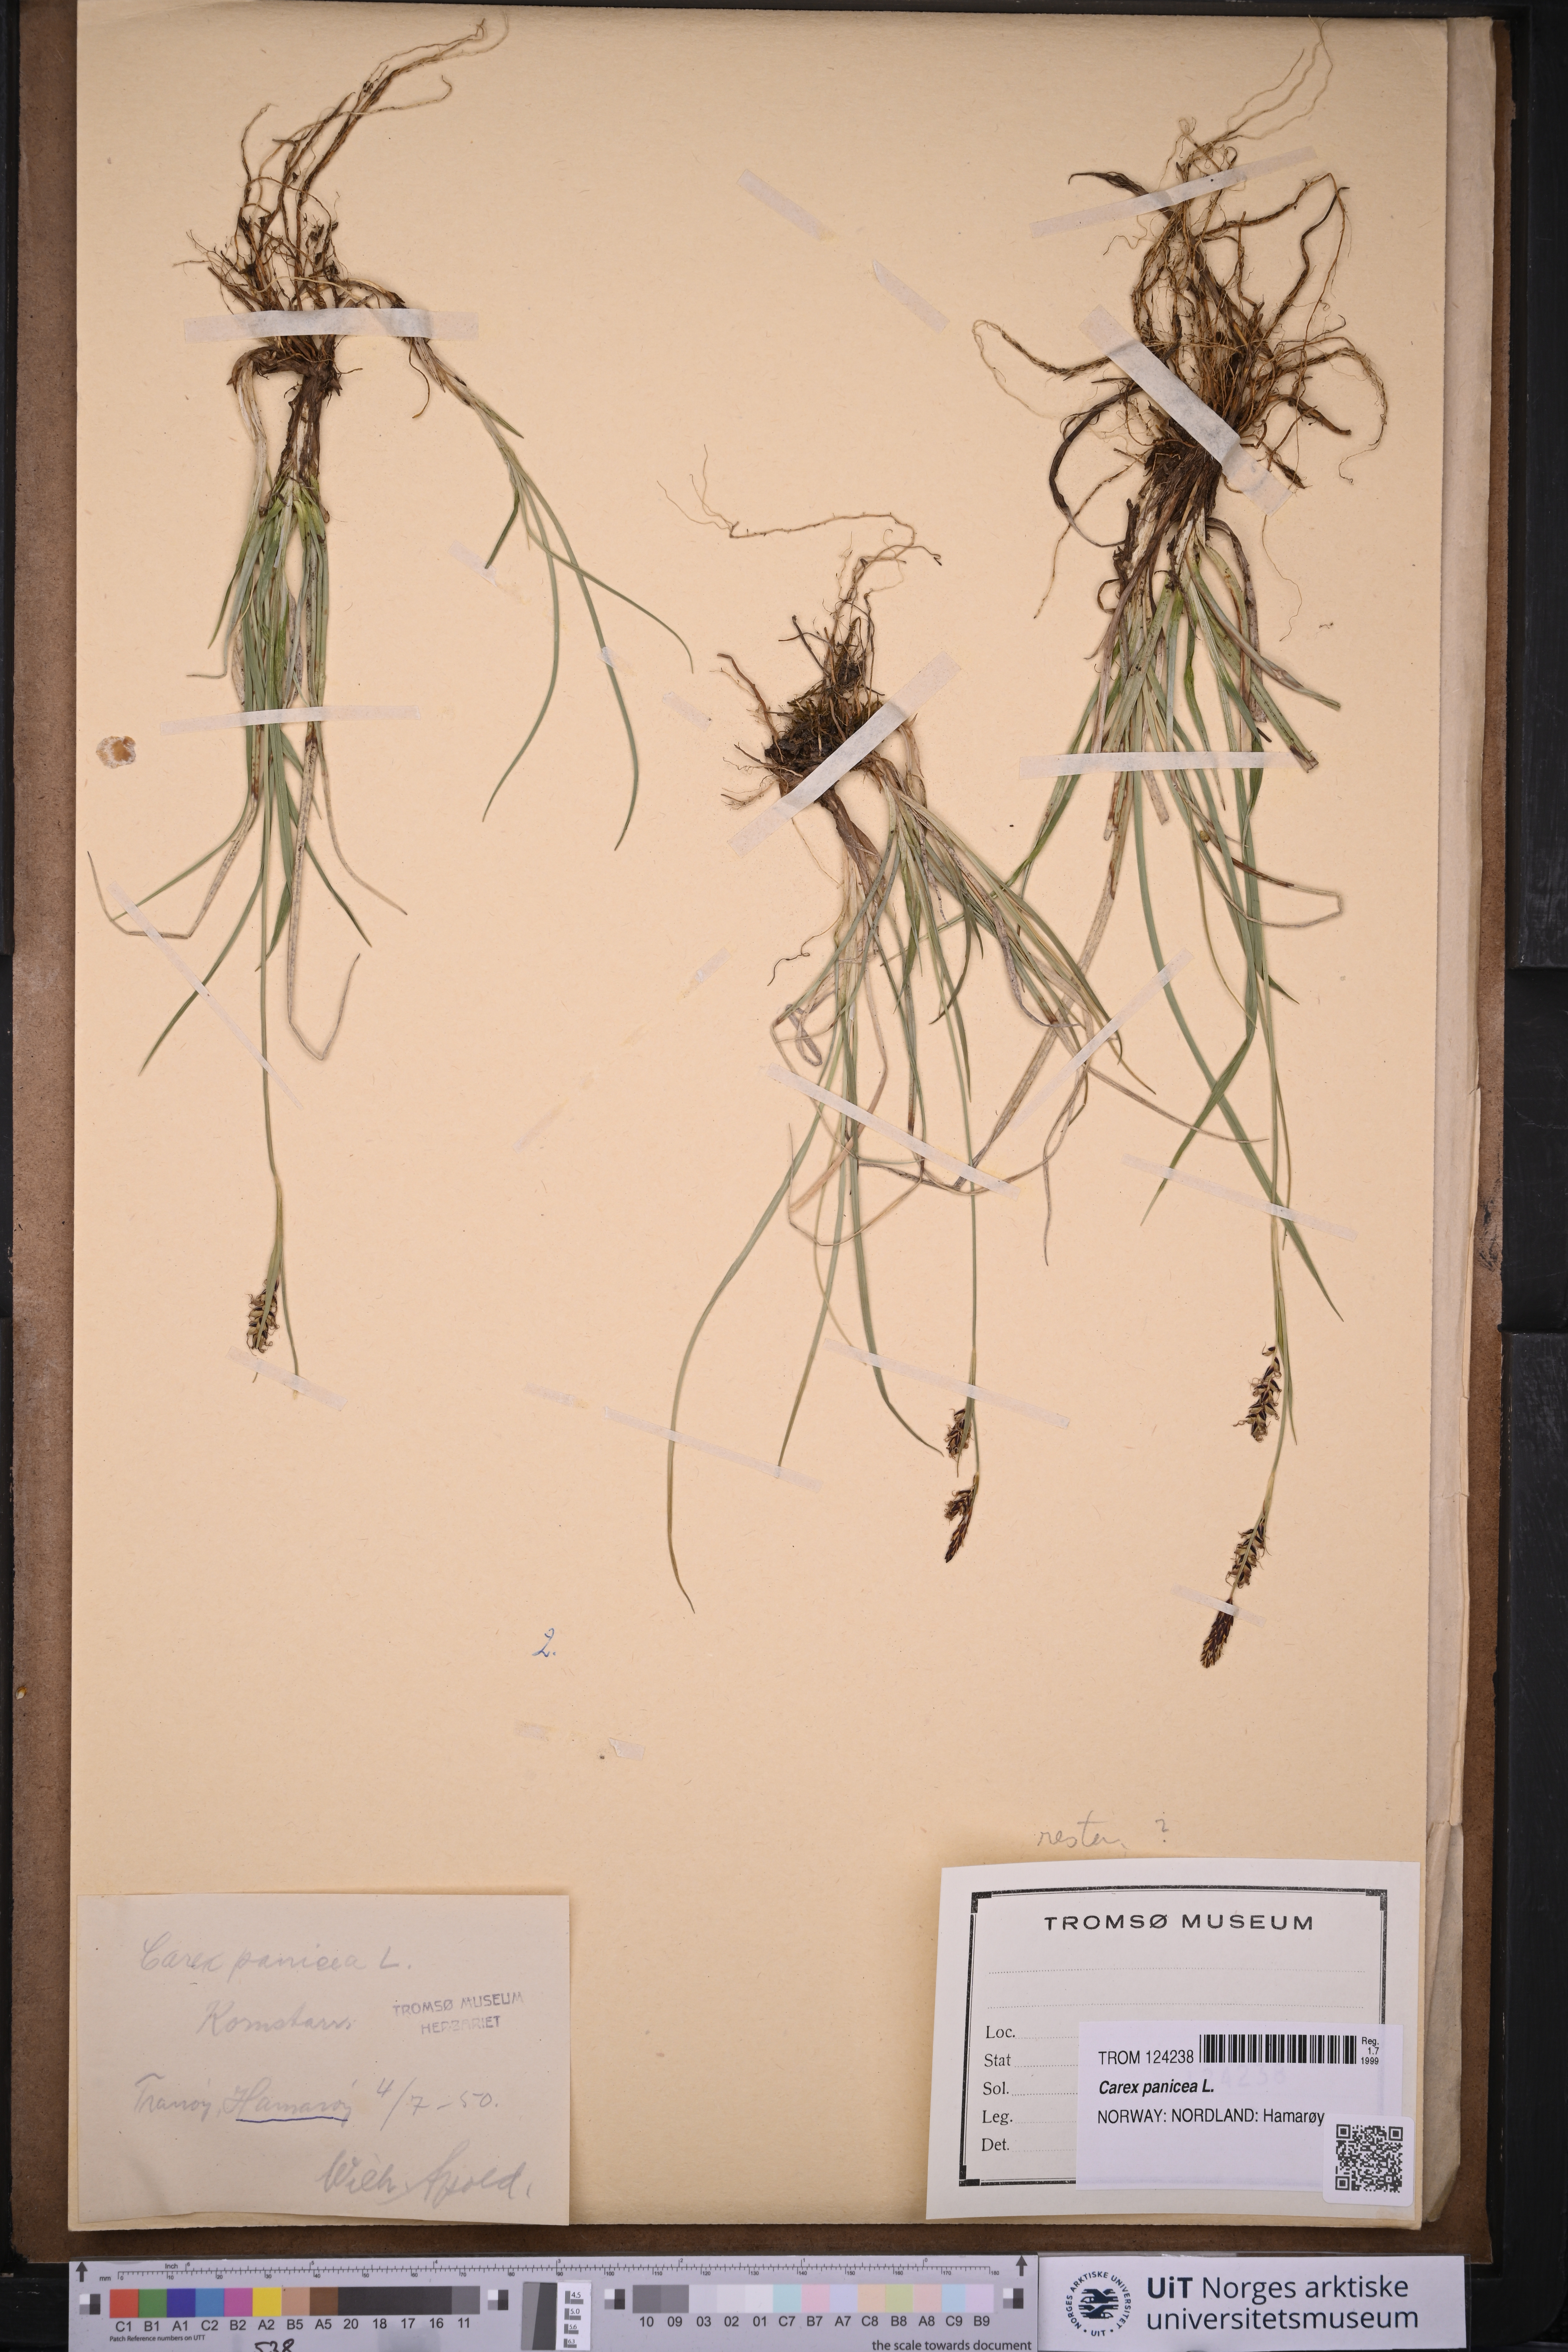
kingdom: Plantae
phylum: Tracheophyta
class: Liliopsida
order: Poales
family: Cyperaceae
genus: Carex
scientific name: Carex panicea
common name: Carnation sedge
